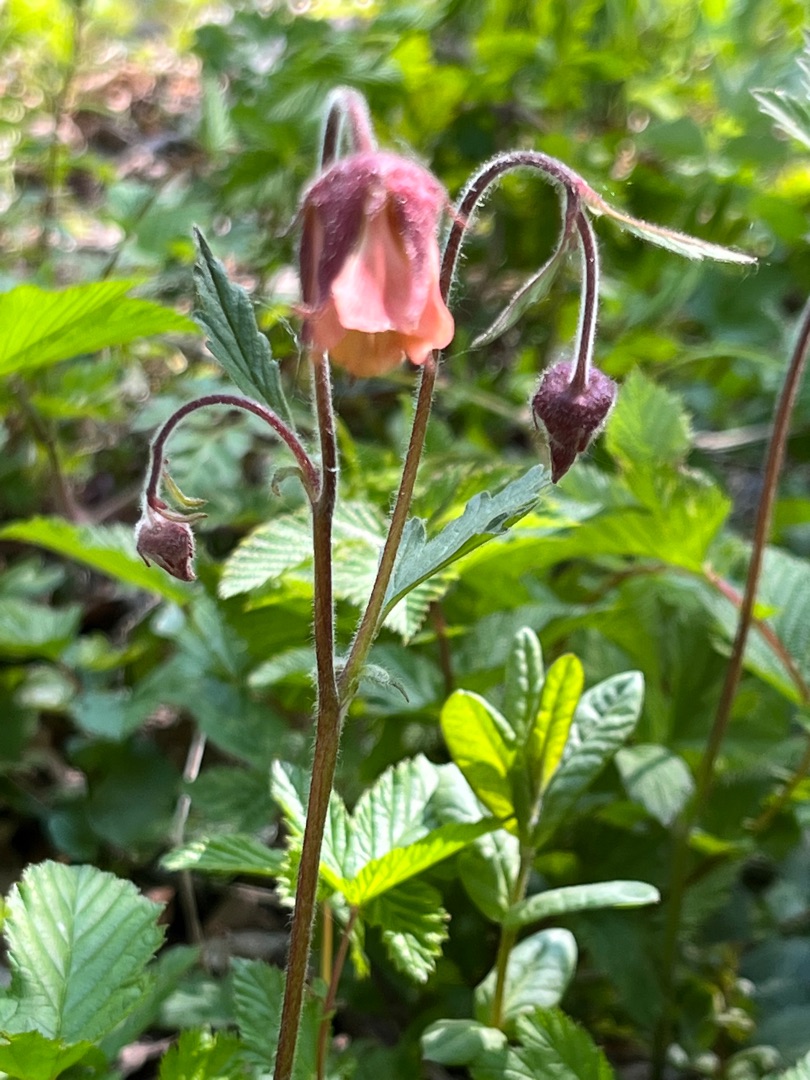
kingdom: Plantae
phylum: Tracheophyta
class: Magnoliopsida
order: Rosales
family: Rosaceae
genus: Geum
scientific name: Geum rivale
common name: Eng-nellikerod
